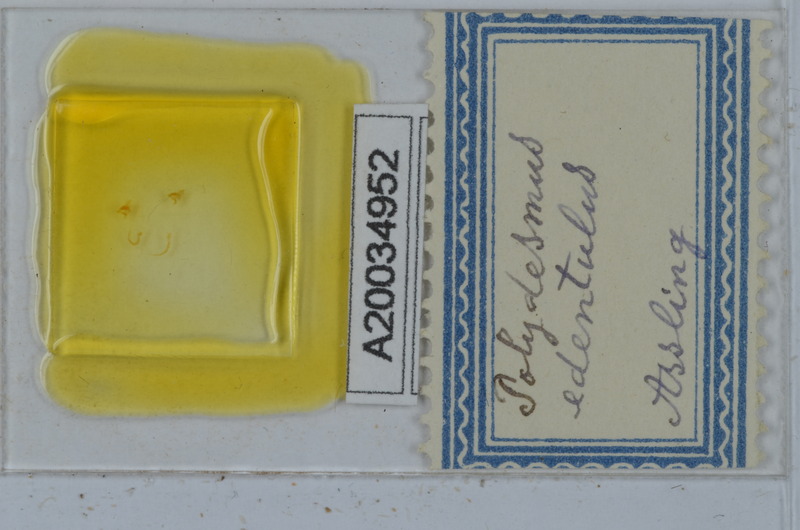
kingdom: Animalia
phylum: Arthropoda
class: Diplopoda
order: Polydesmida
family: Polydesmidae
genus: Polydesmus
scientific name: Polydesmus edentulus
